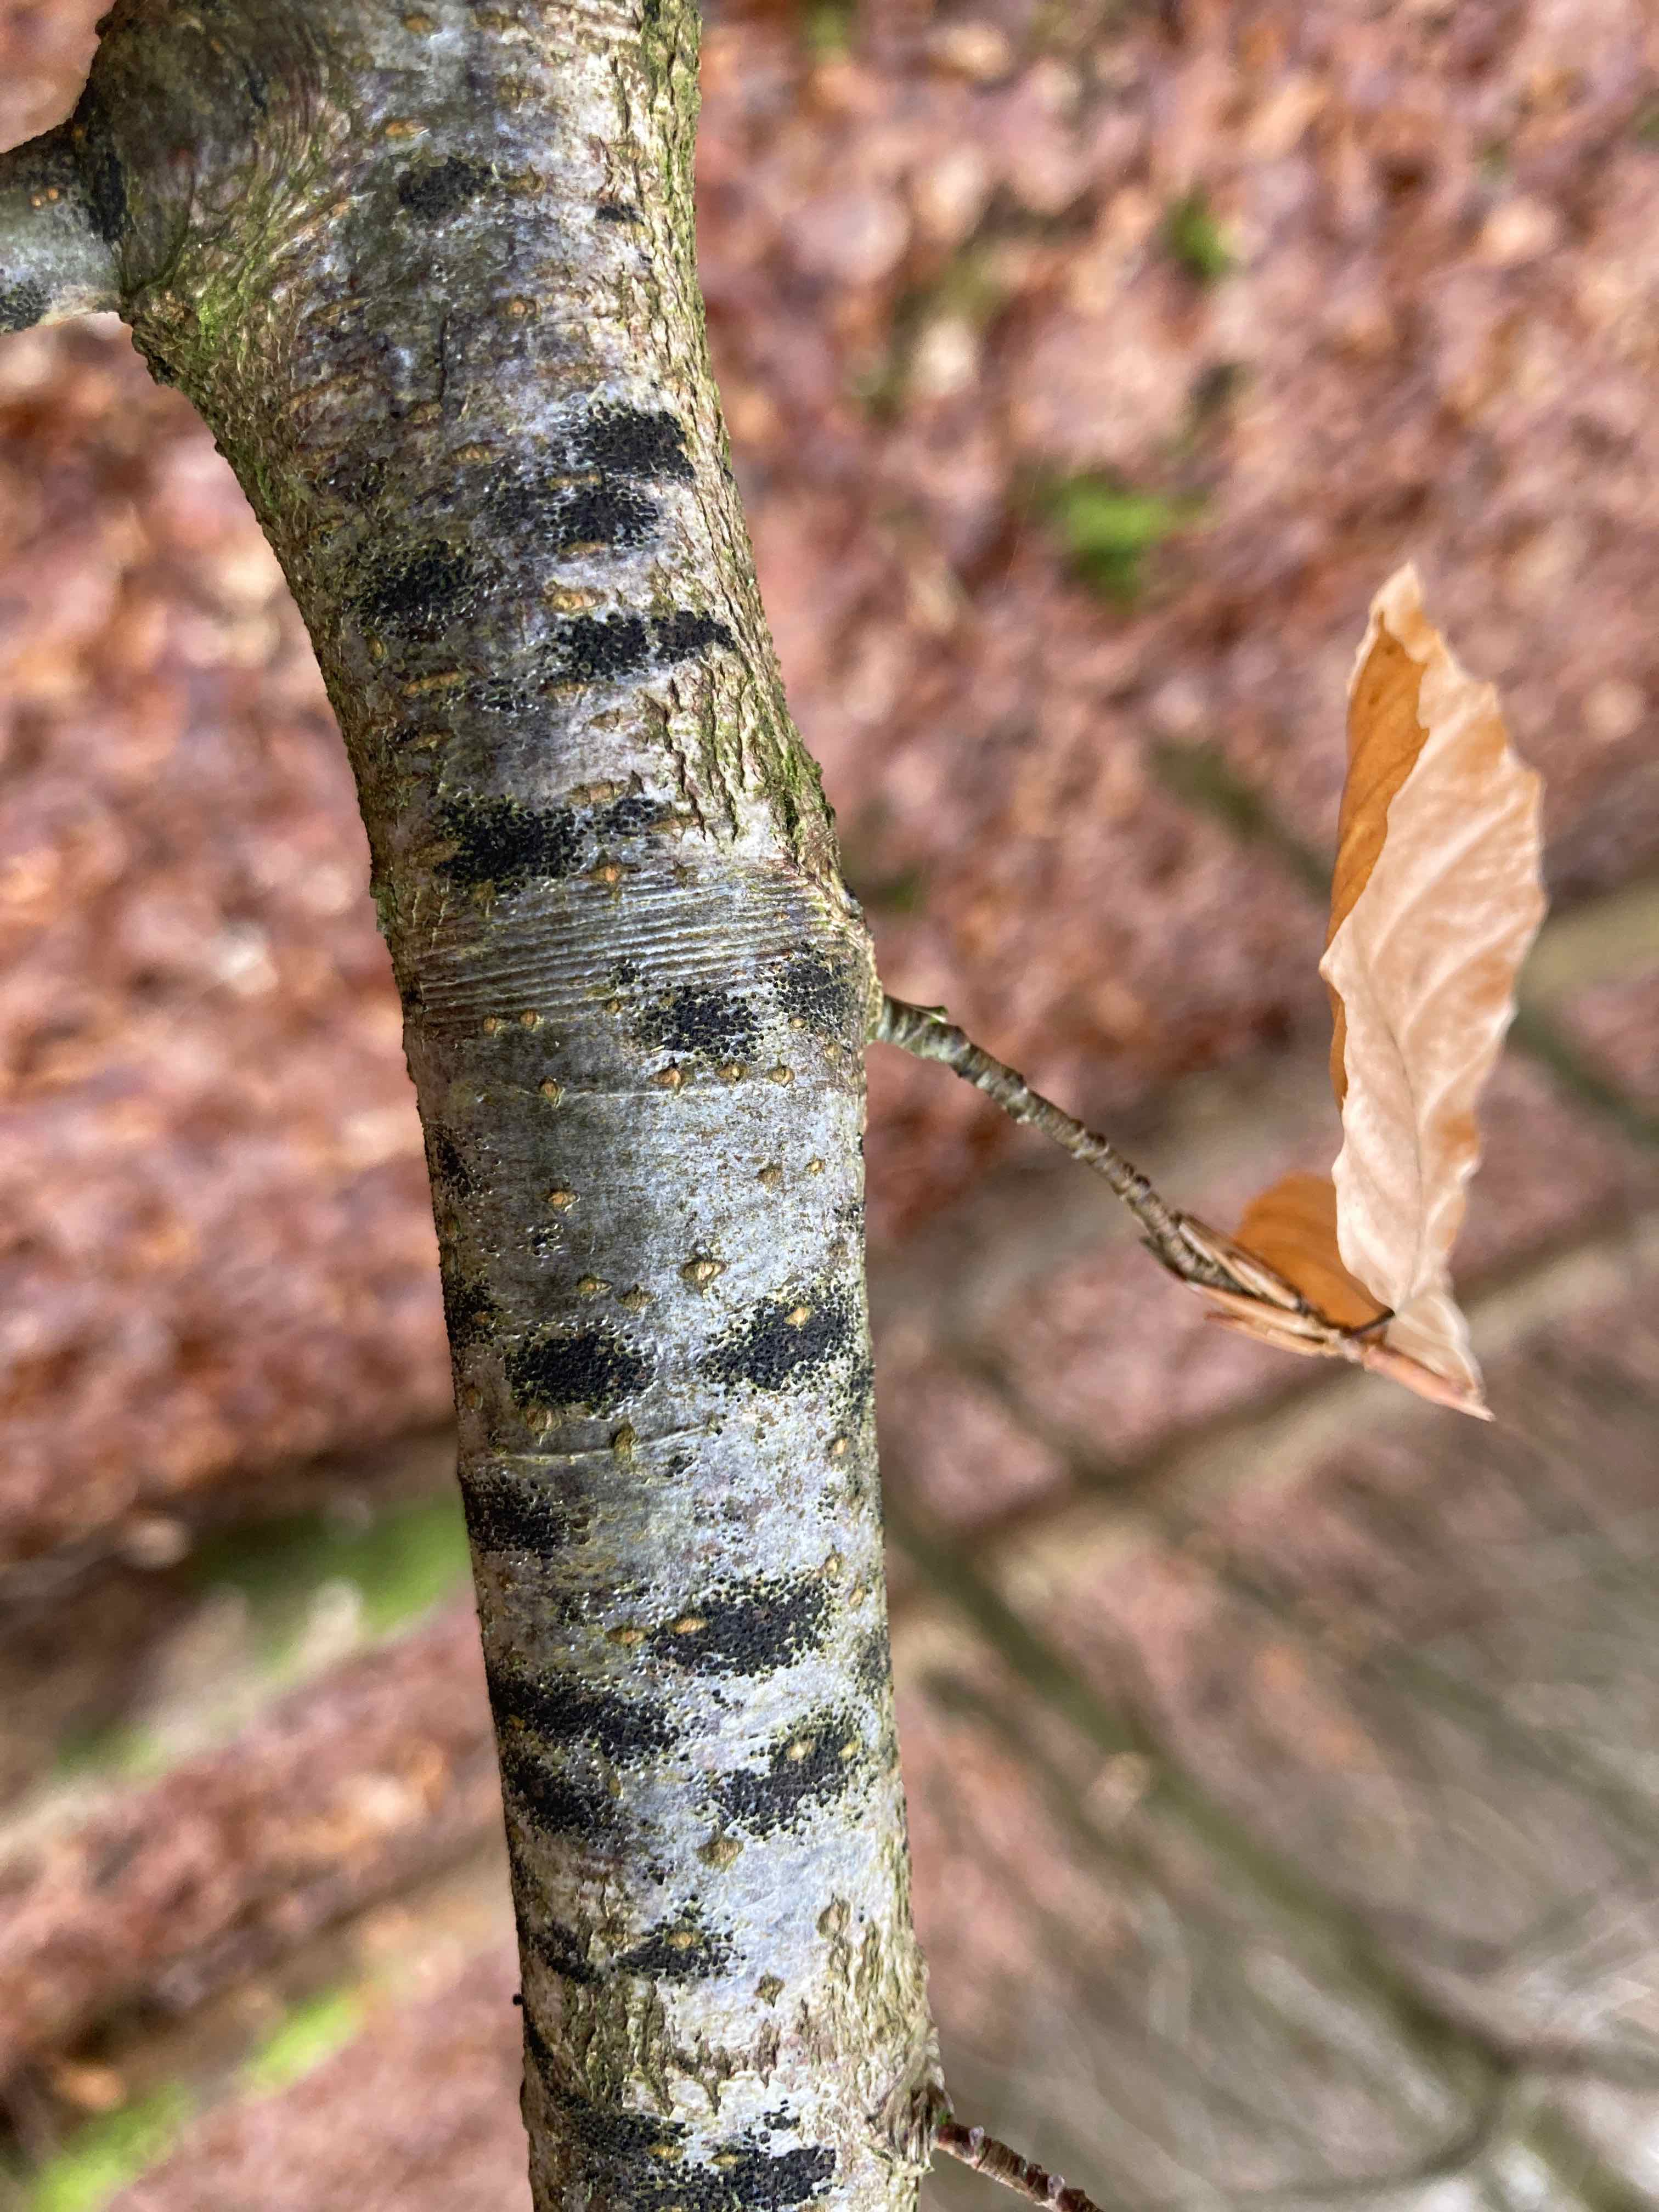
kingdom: Fungi
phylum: Ascomycota
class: Leotiomycetes
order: Rhytismatales
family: Ascodichaenaceae
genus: Ascodichaena
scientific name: Ascodichaena rugosa
